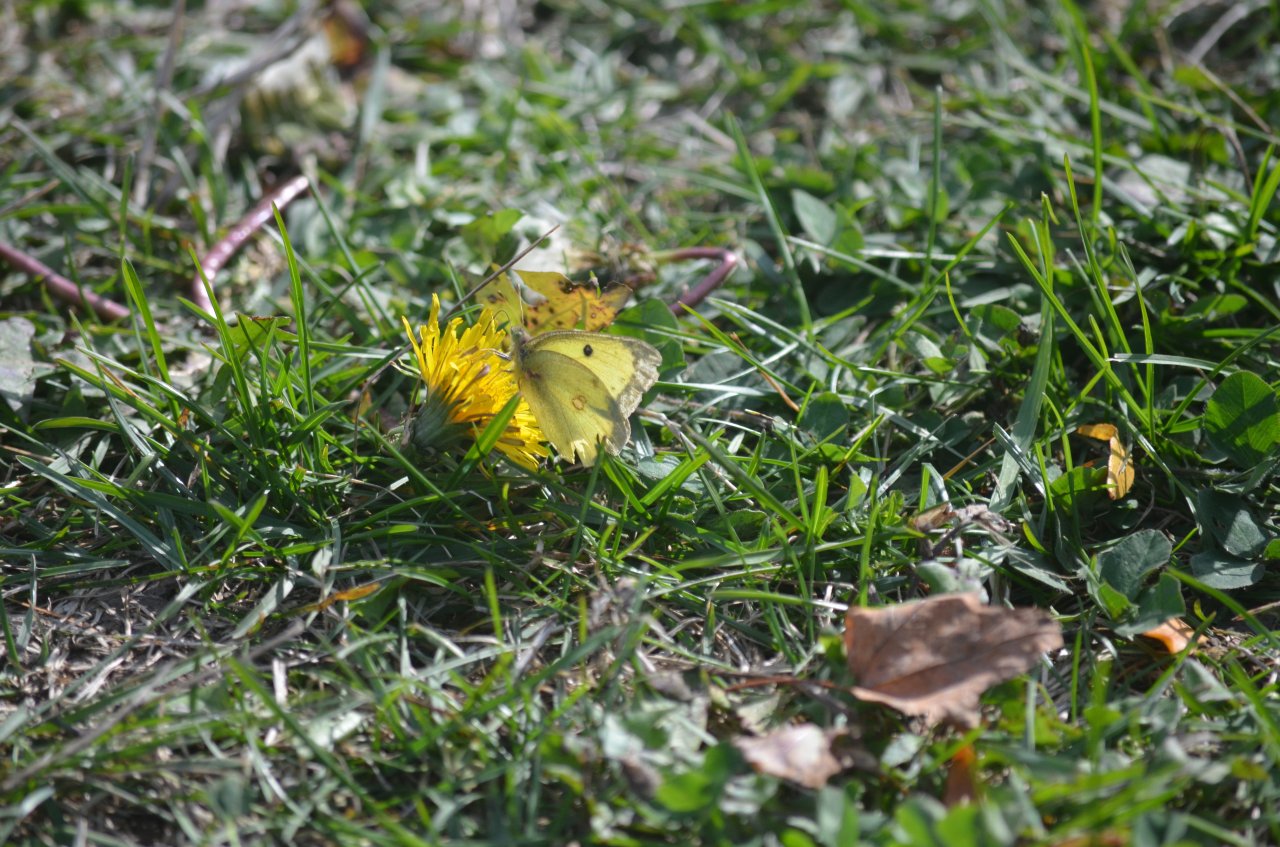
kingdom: Animalia
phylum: Arthropoda
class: Insecta
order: Lepidoptera
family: Pieridae
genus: Colias
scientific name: Colias philodice
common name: Clouded Sulphur
